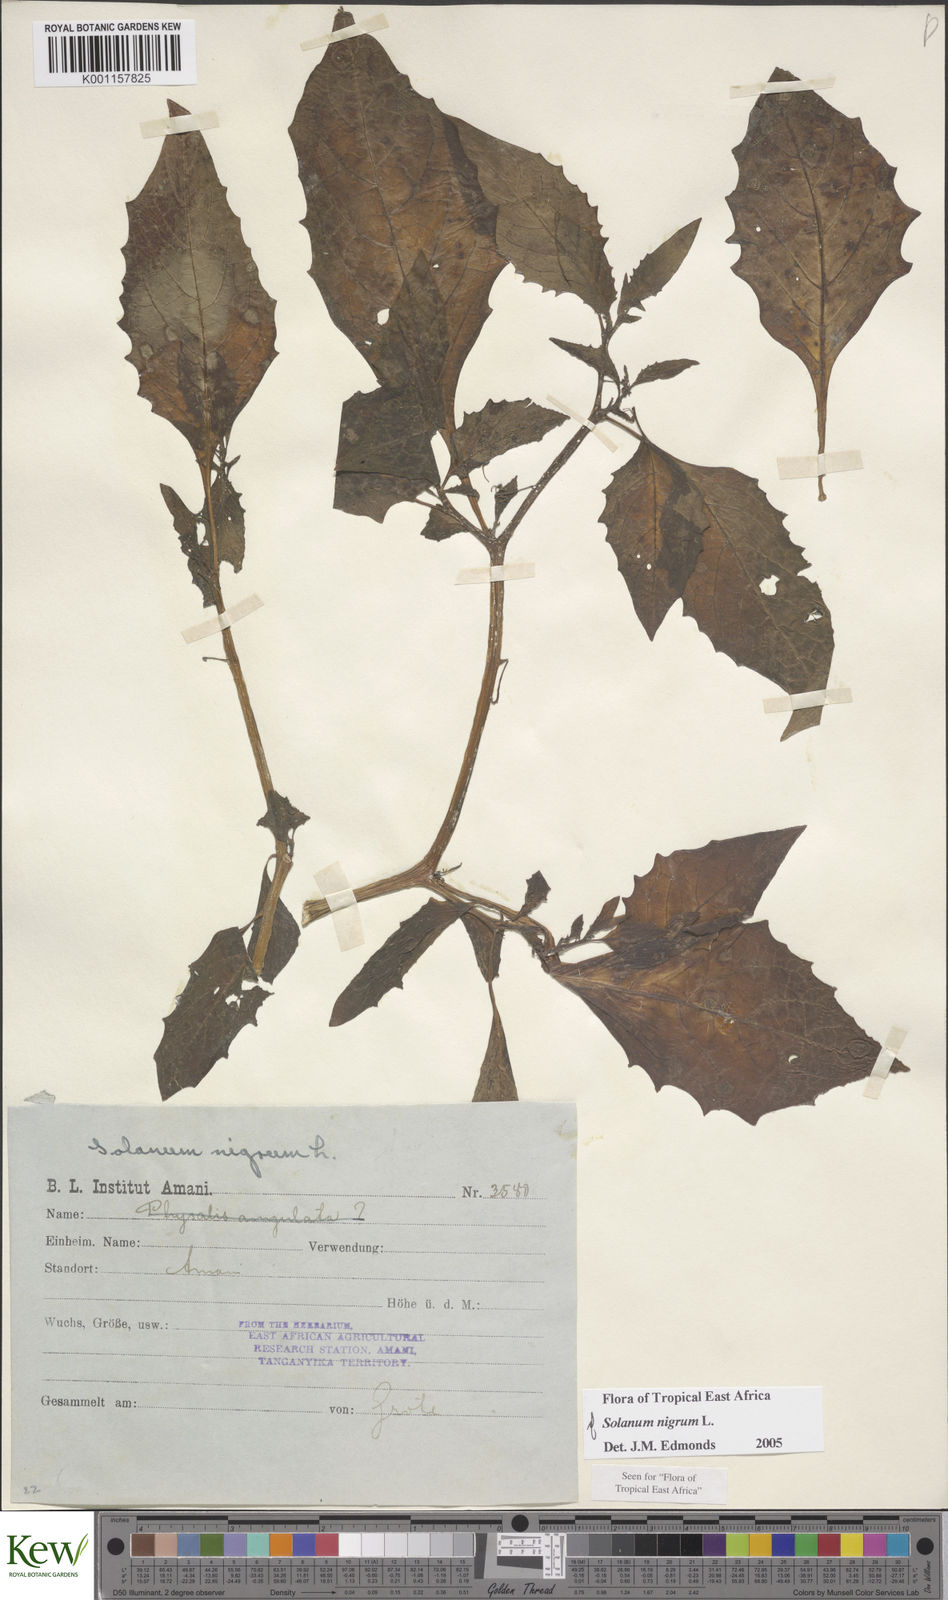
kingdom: Plantae
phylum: Tracheophyta
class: Magnoliopsida
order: Solanales
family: Solanaceae
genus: Solanum
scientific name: Solanum nigrum
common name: Black nightshade
